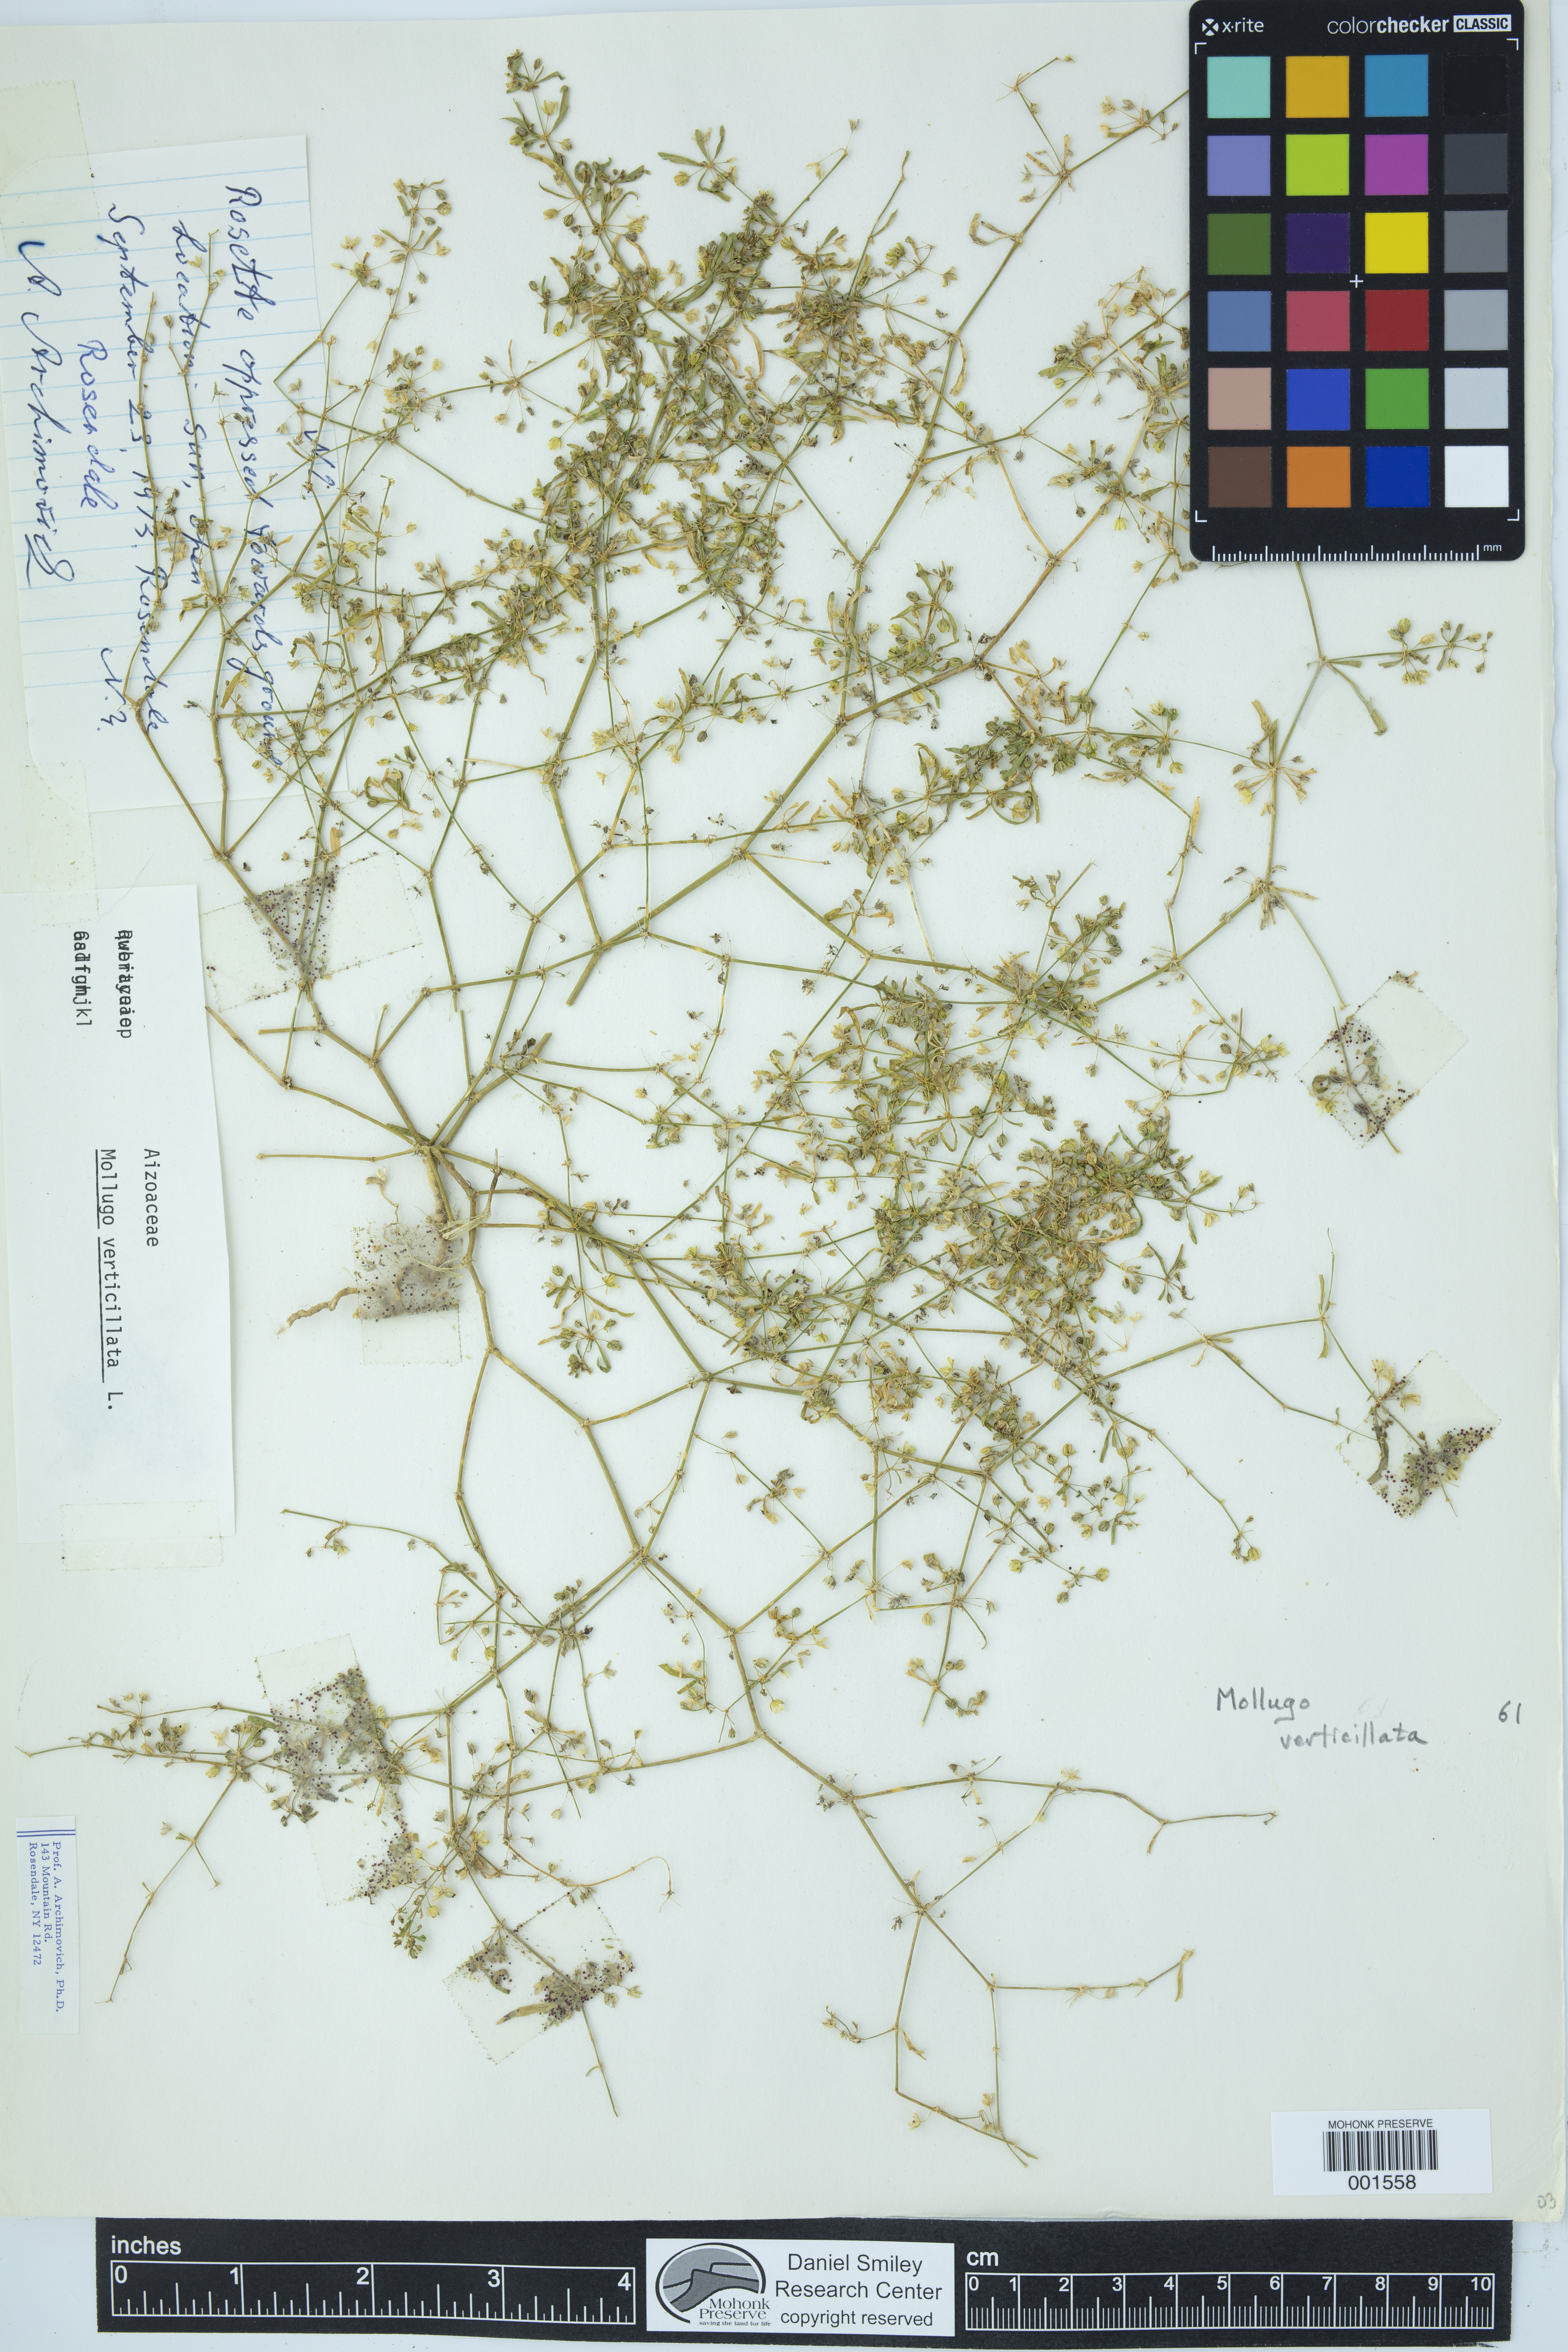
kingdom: Plantae
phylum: Tracheophyta
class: Magnoliopsida
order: Caryophyllales
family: Molluginaceae
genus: Mollugo
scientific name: Mollugo verticillata
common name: Green carpetweed
